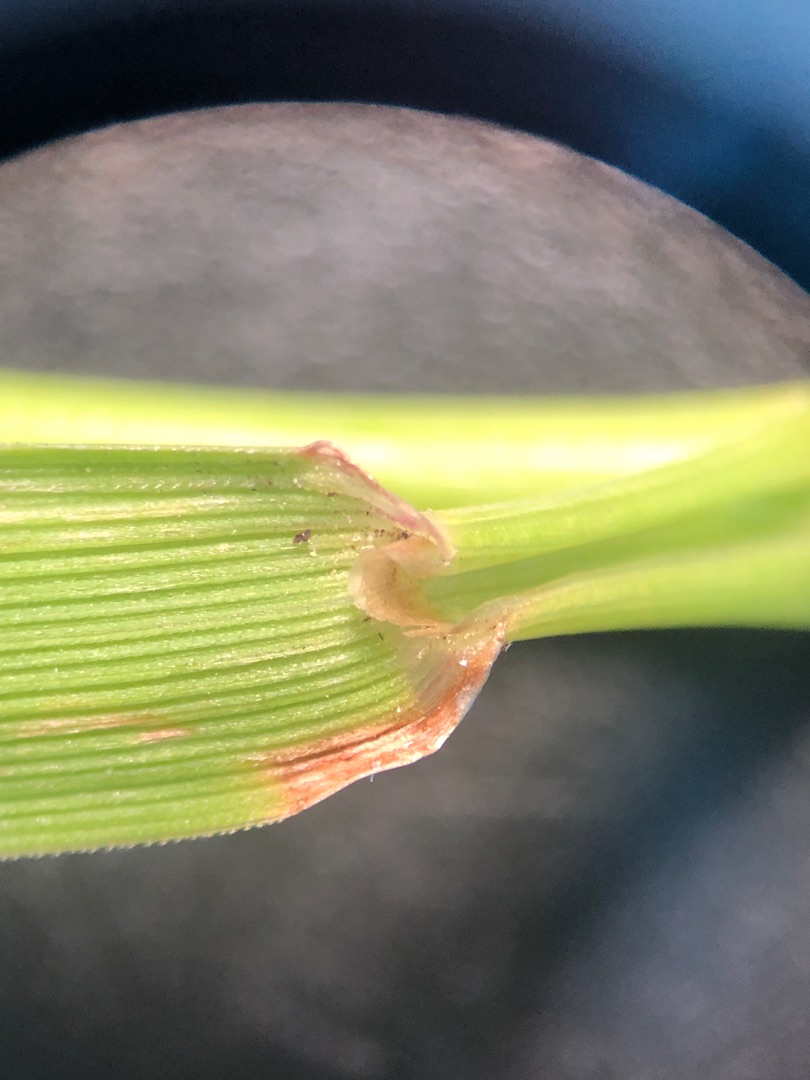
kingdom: Plantae
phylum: Tracheophyta
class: Liliopsida
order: Poales
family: Poaceae
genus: Agrostis
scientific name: Agrostis capillaris
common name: Almindelig hvene
